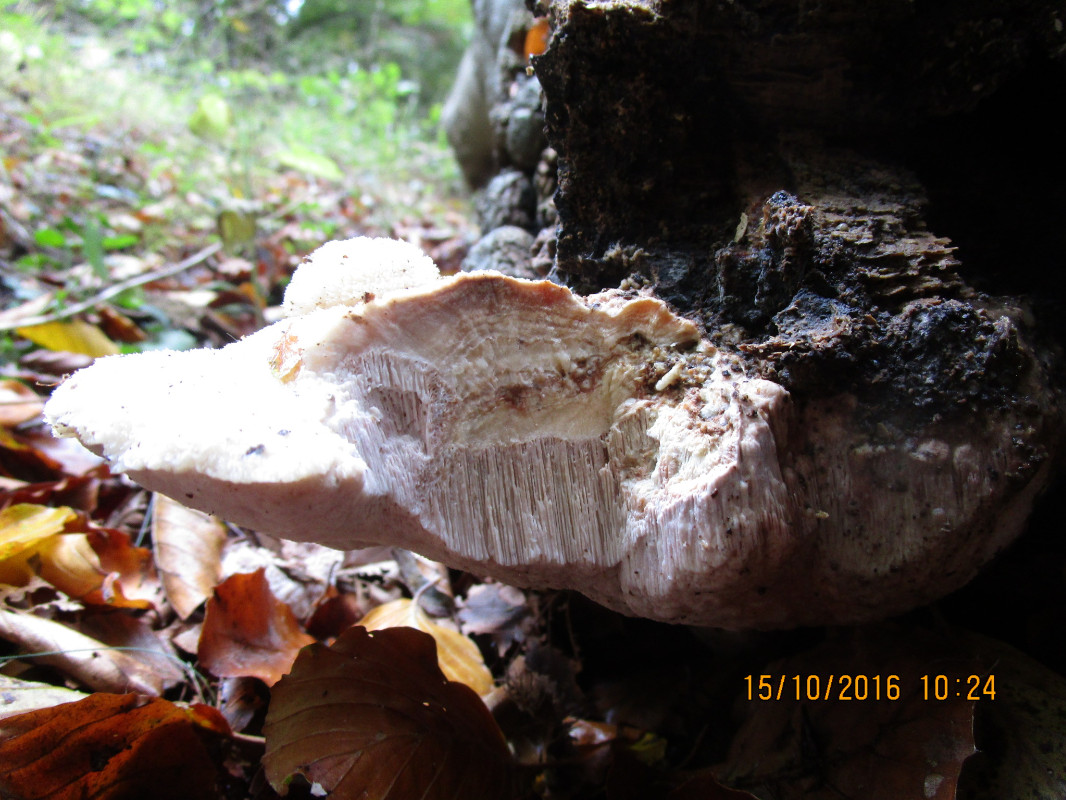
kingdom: Fungi
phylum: Basidiomycota
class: Agaricomycetes
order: Polyporales
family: Meruliaceae
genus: Pappia
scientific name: Pappia fissilis
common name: sej fedtporesvamp
